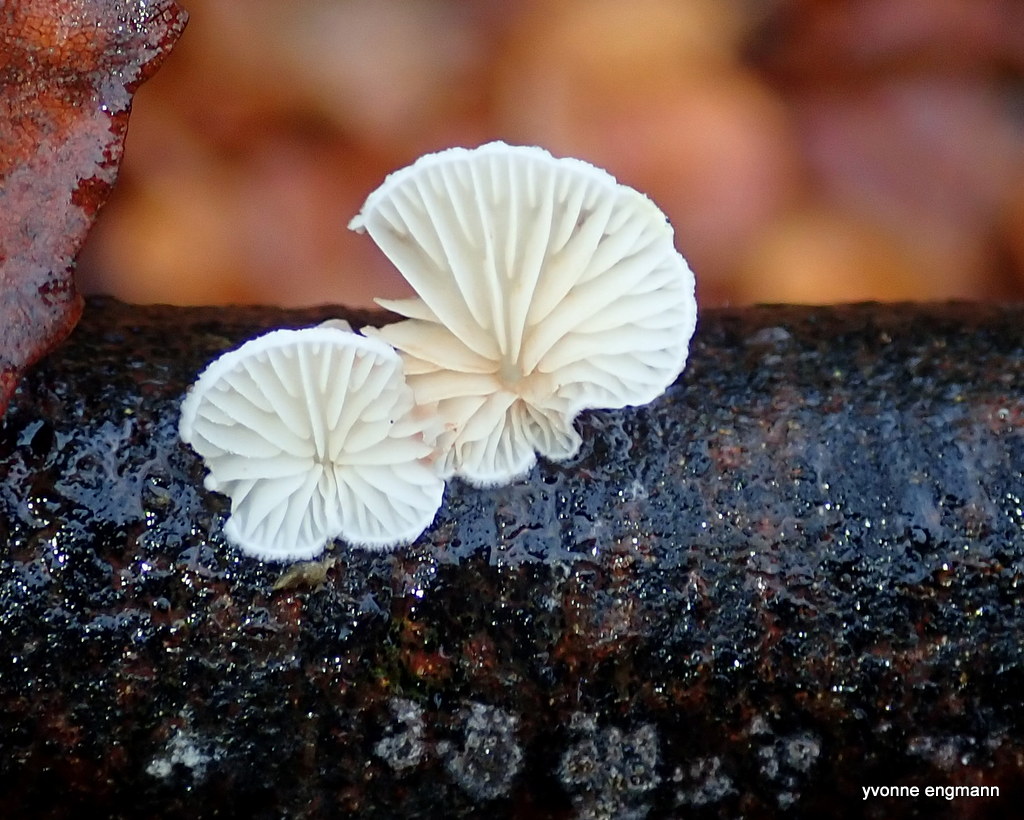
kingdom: Fungi
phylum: Basidiomycota
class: Agaricomycetes
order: Agaricales
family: Crepidotaceae
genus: Crepidotus
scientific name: Crepidotus
